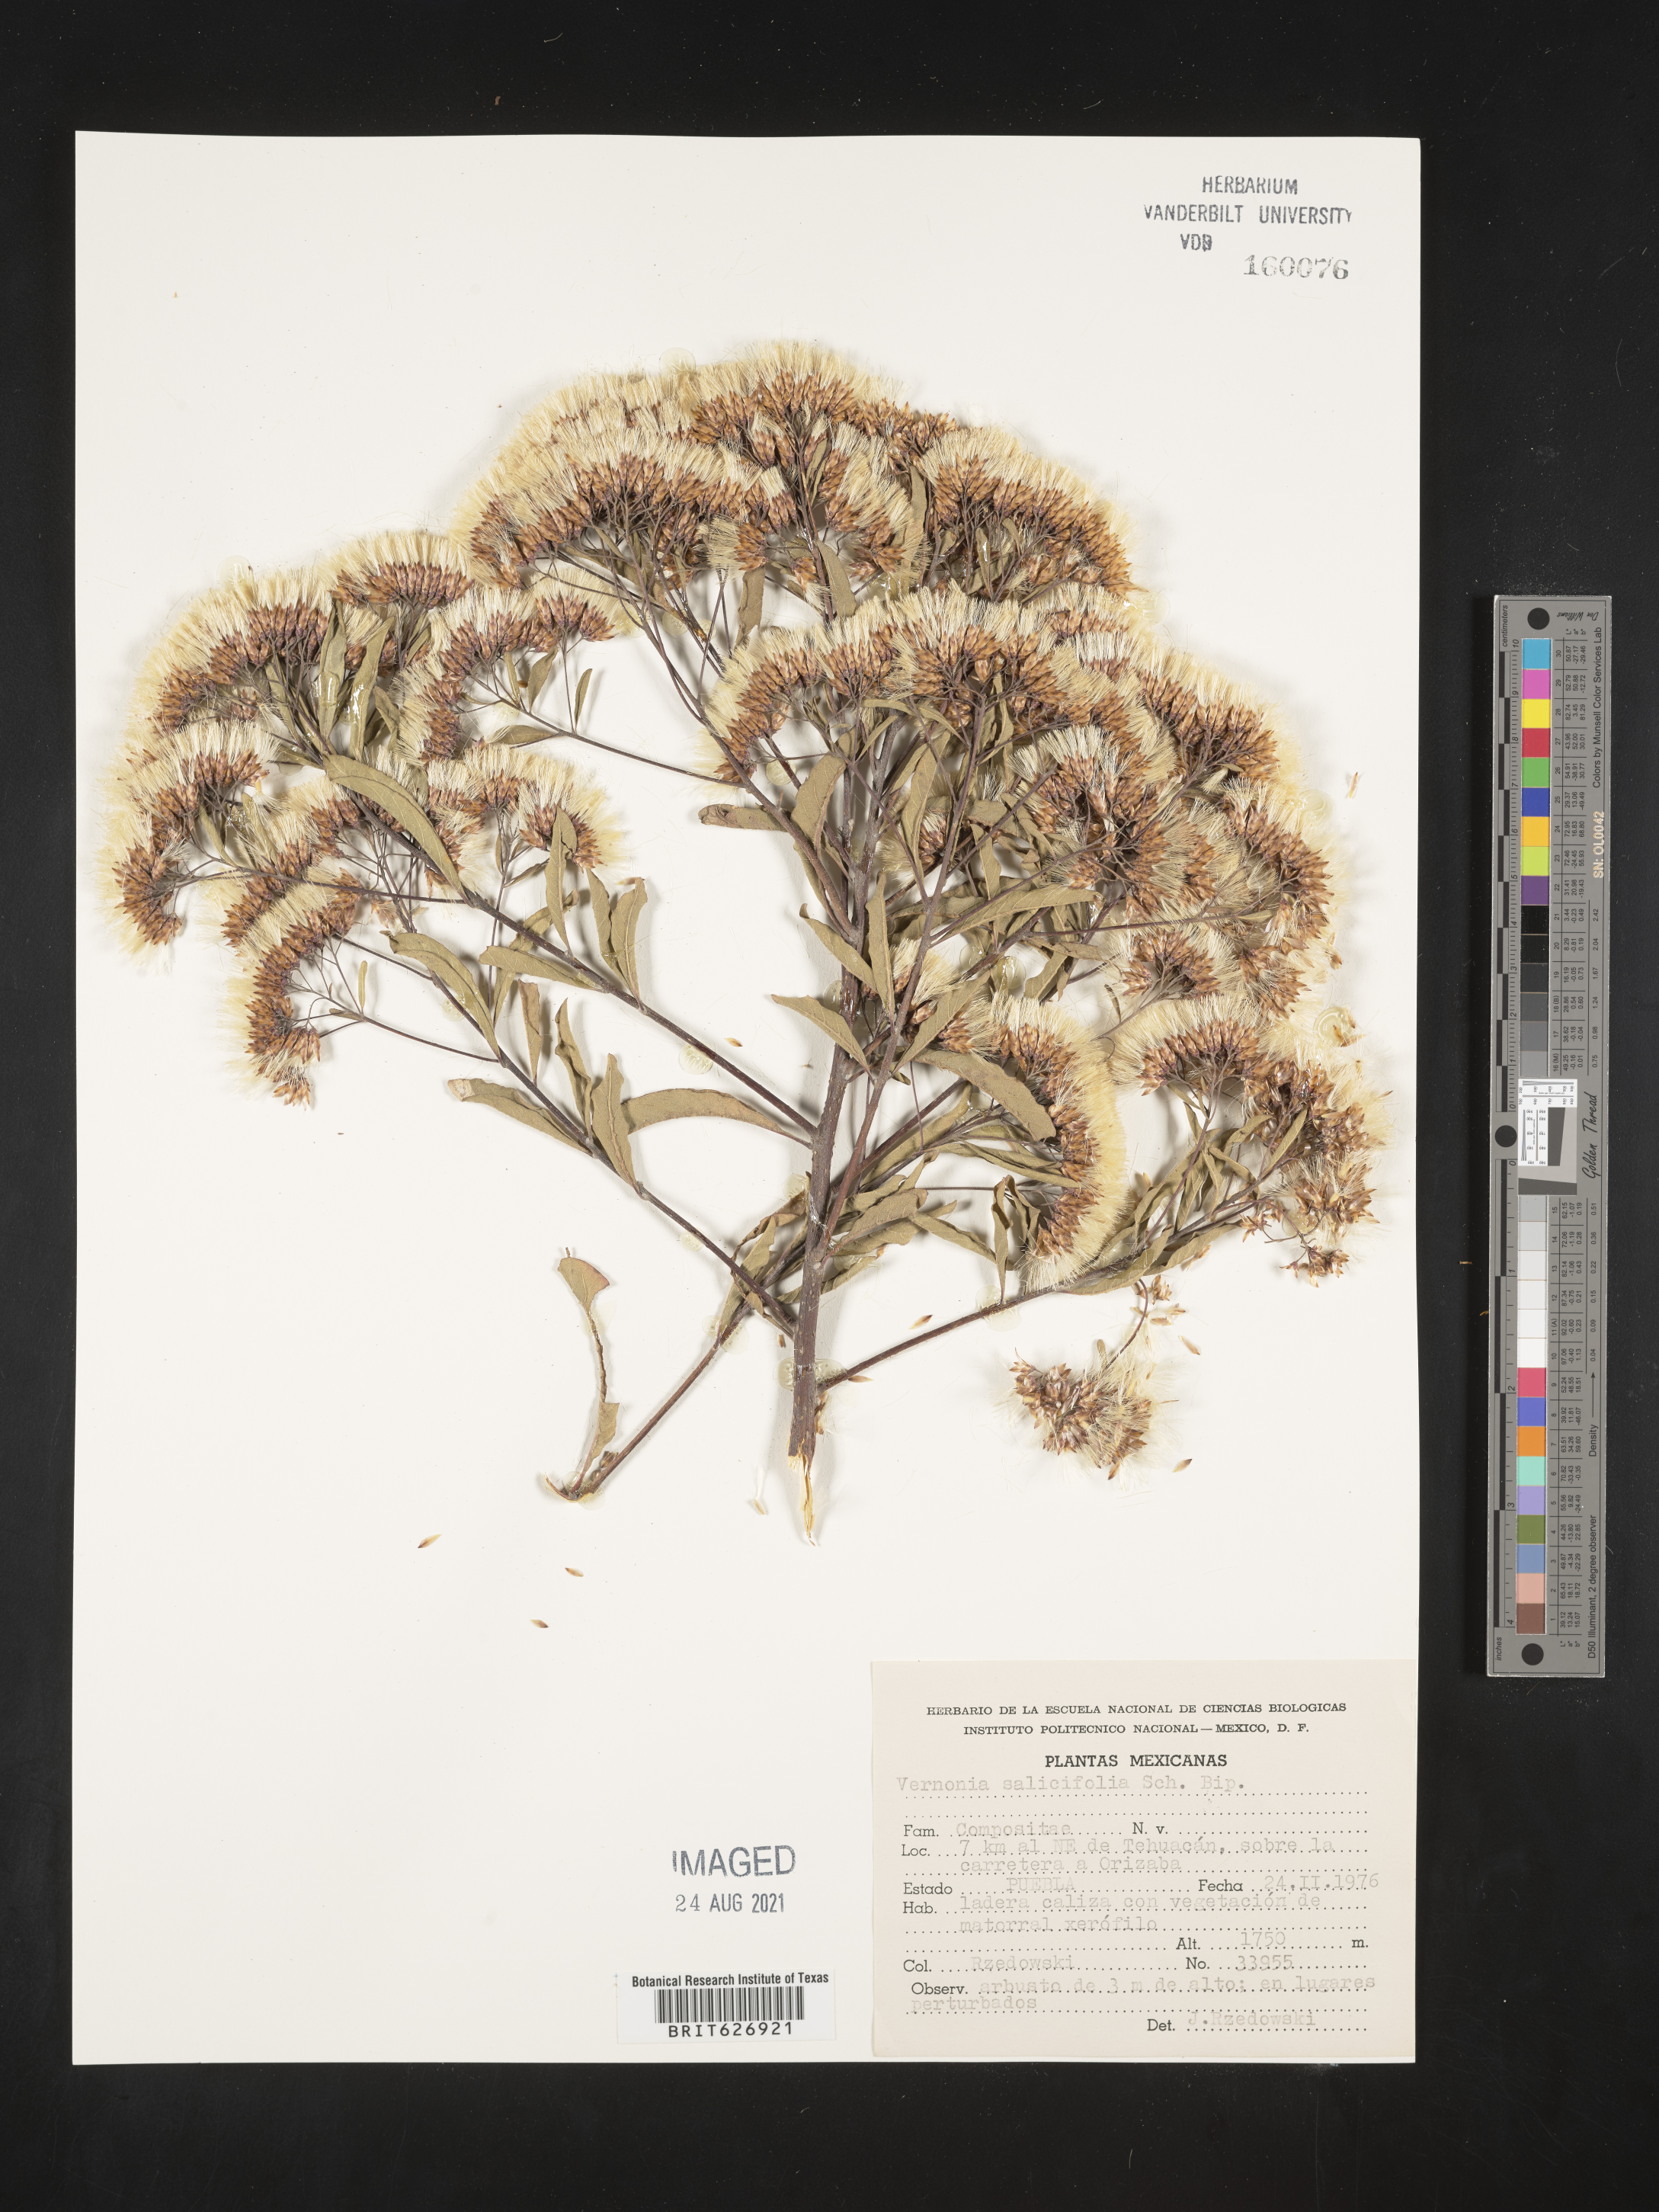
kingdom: Plantae
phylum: Tracheophyta
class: Magnoliopsida
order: Asterales
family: Asteraceae
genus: Vernonia
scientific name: Vernonia
